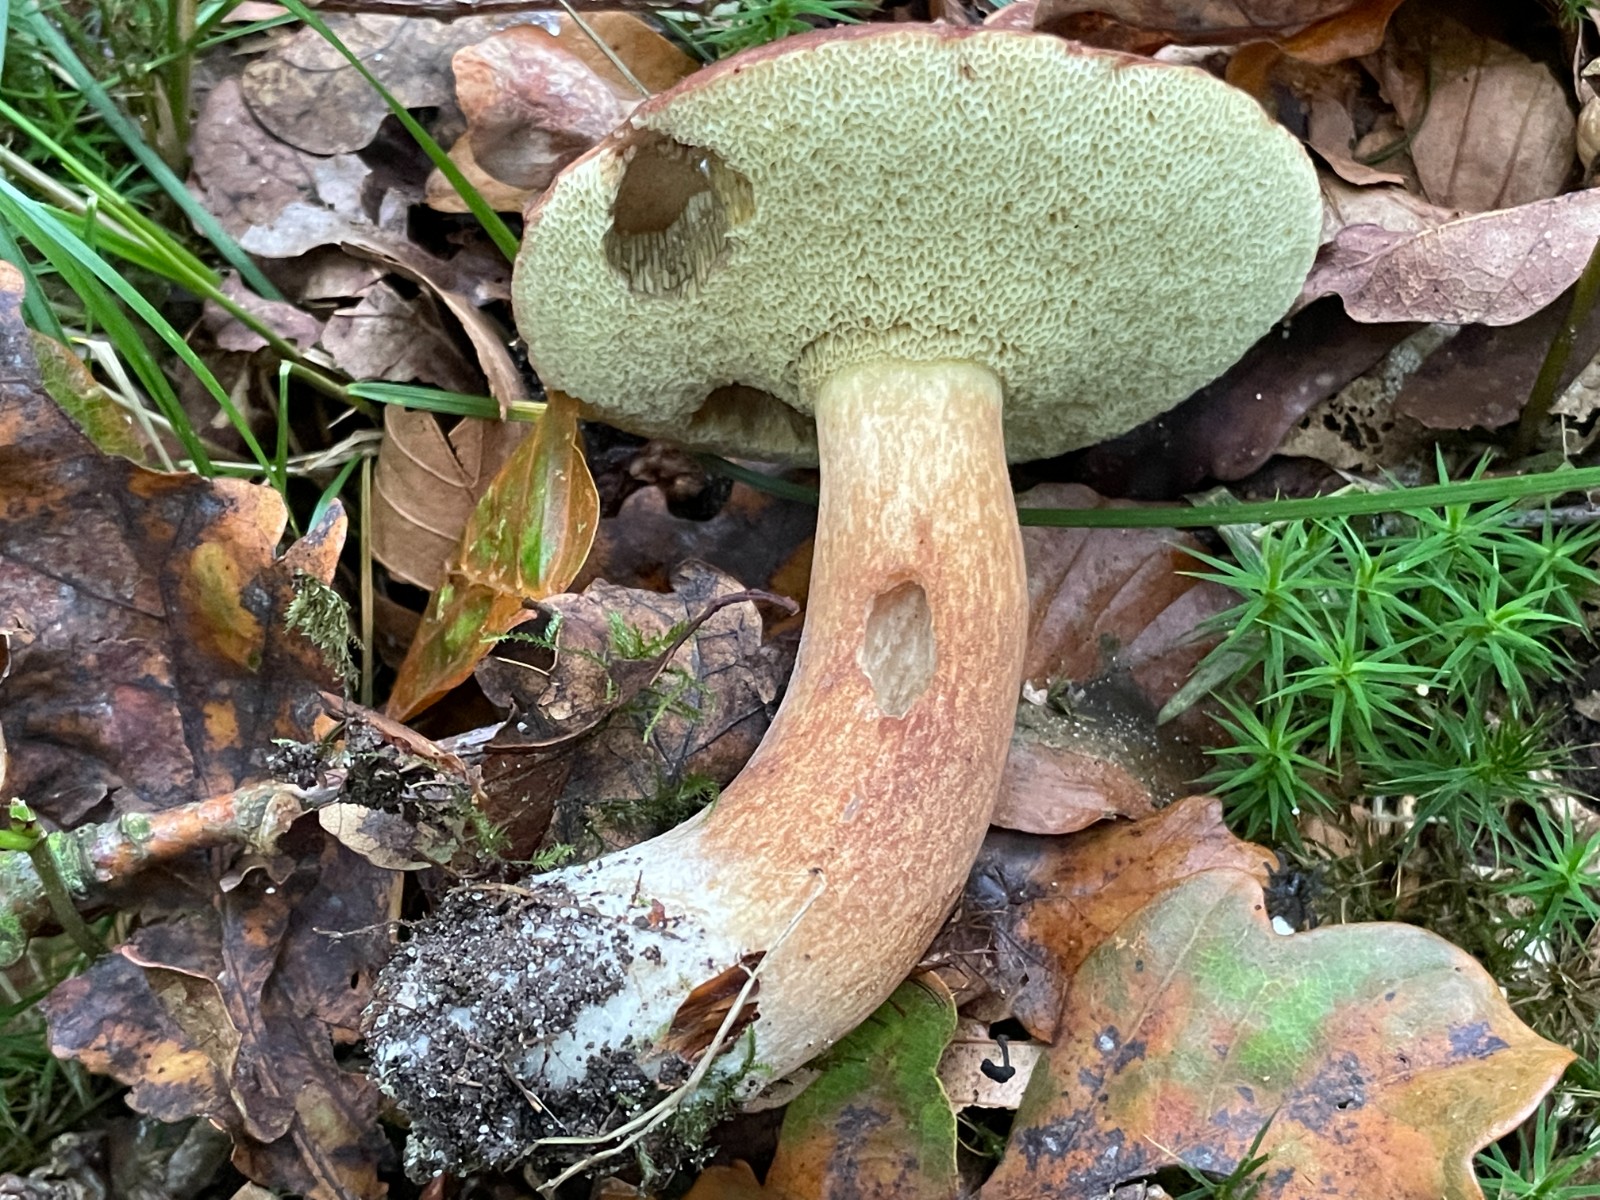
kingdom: Fungi
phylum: Basidiomycota
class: Agaricomycetes
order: Boletales
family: Boletaceae
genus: Imleria
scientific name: Imleria badia
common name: brunstokket rørhat
